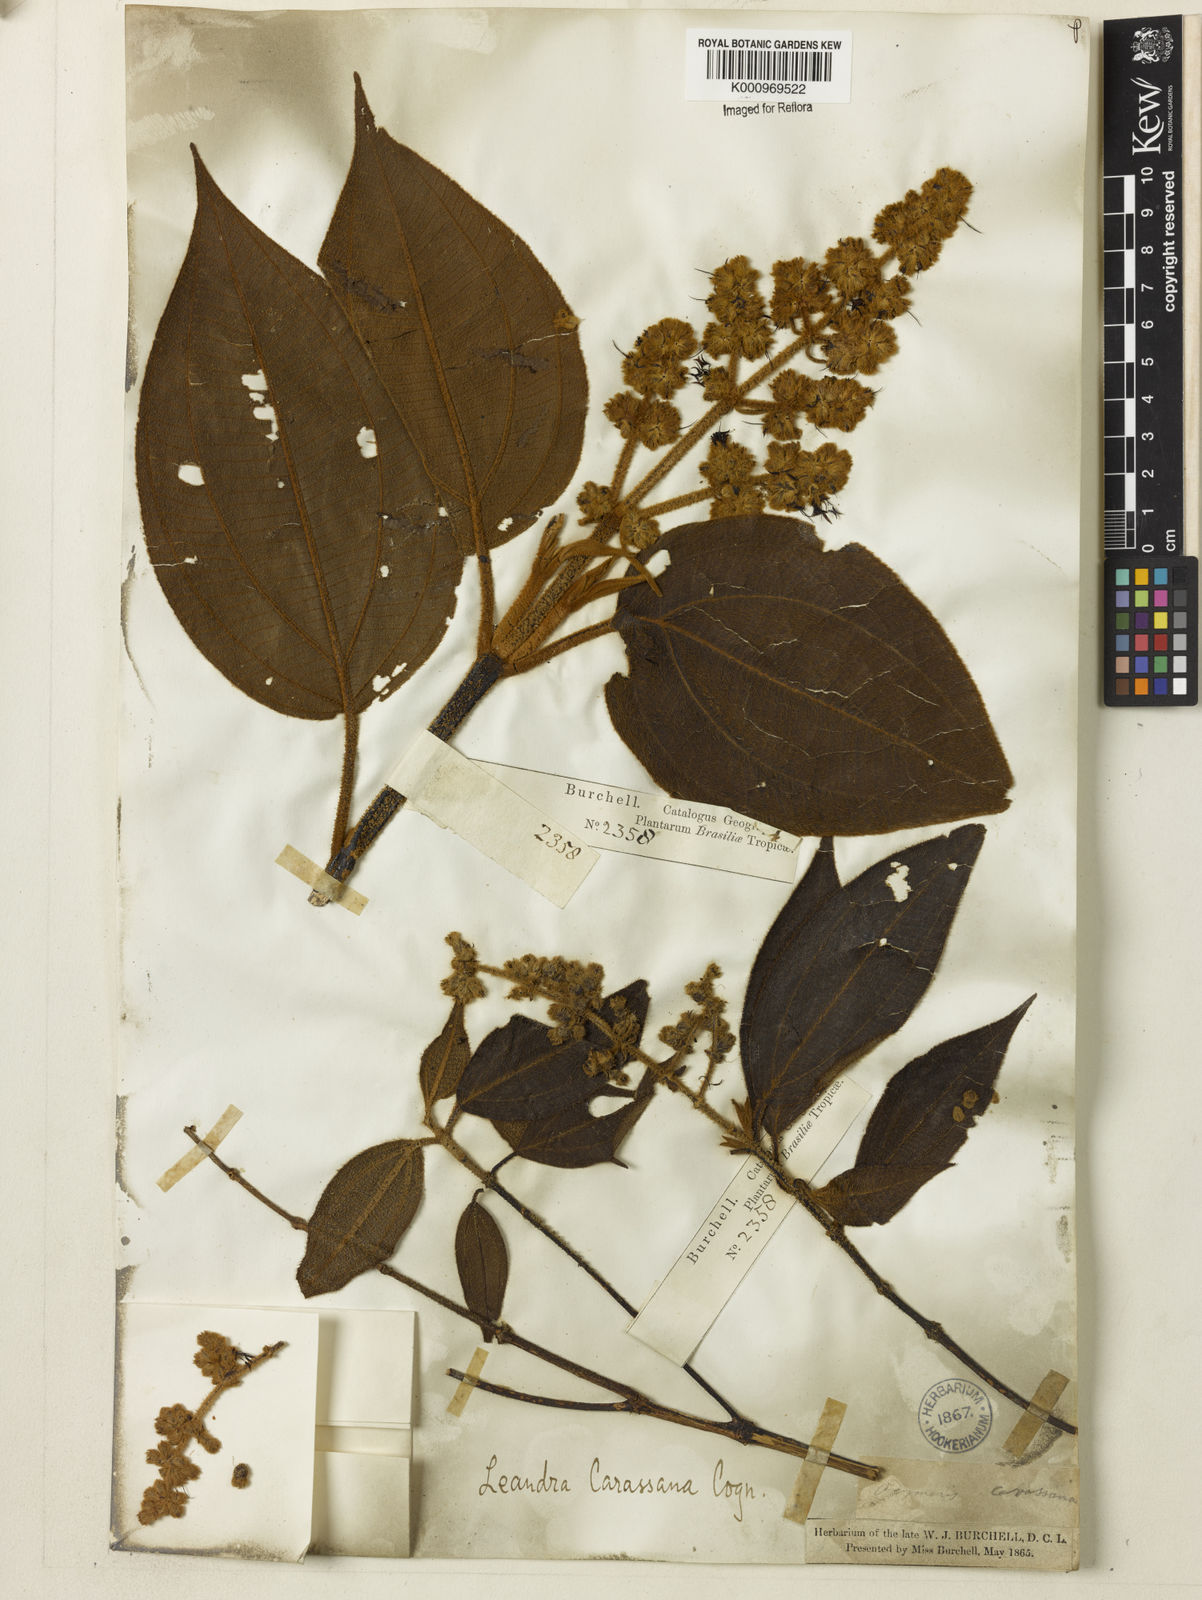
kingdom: Plantae
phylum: Tracheophyta
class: Magnoliopsida
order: Myrtales
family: Melastomataceae
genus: Miconia
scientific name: Miconia sublanata
